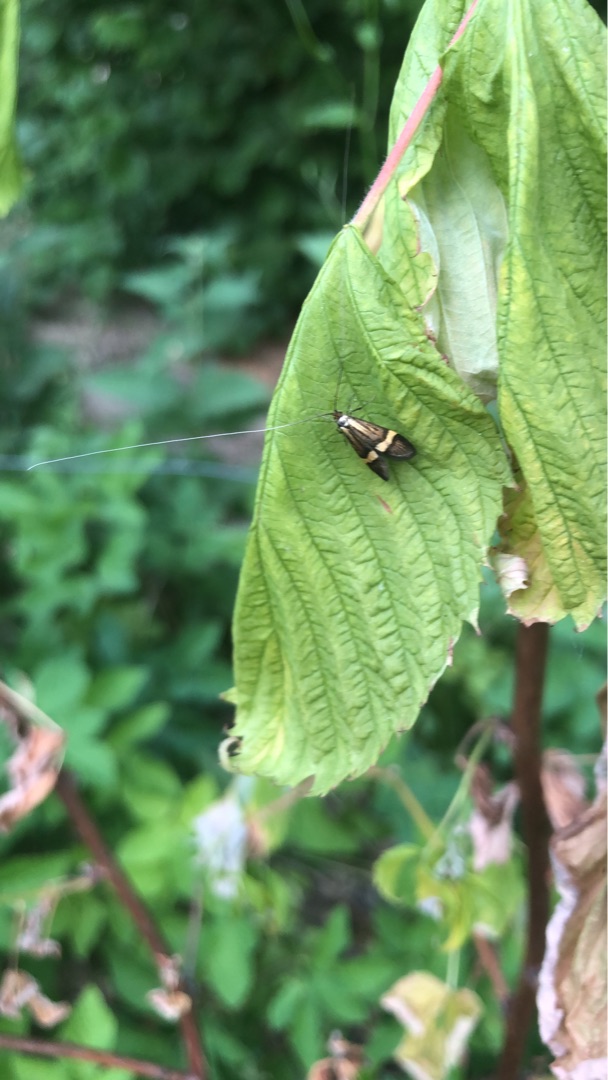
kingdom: Animalia
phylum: Arthropoda
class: Insecta
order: Lepidoptera
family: Adelidae
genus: Nemophora
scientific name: Nemophora degeerella
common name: Løvskovslanghornsmøl
